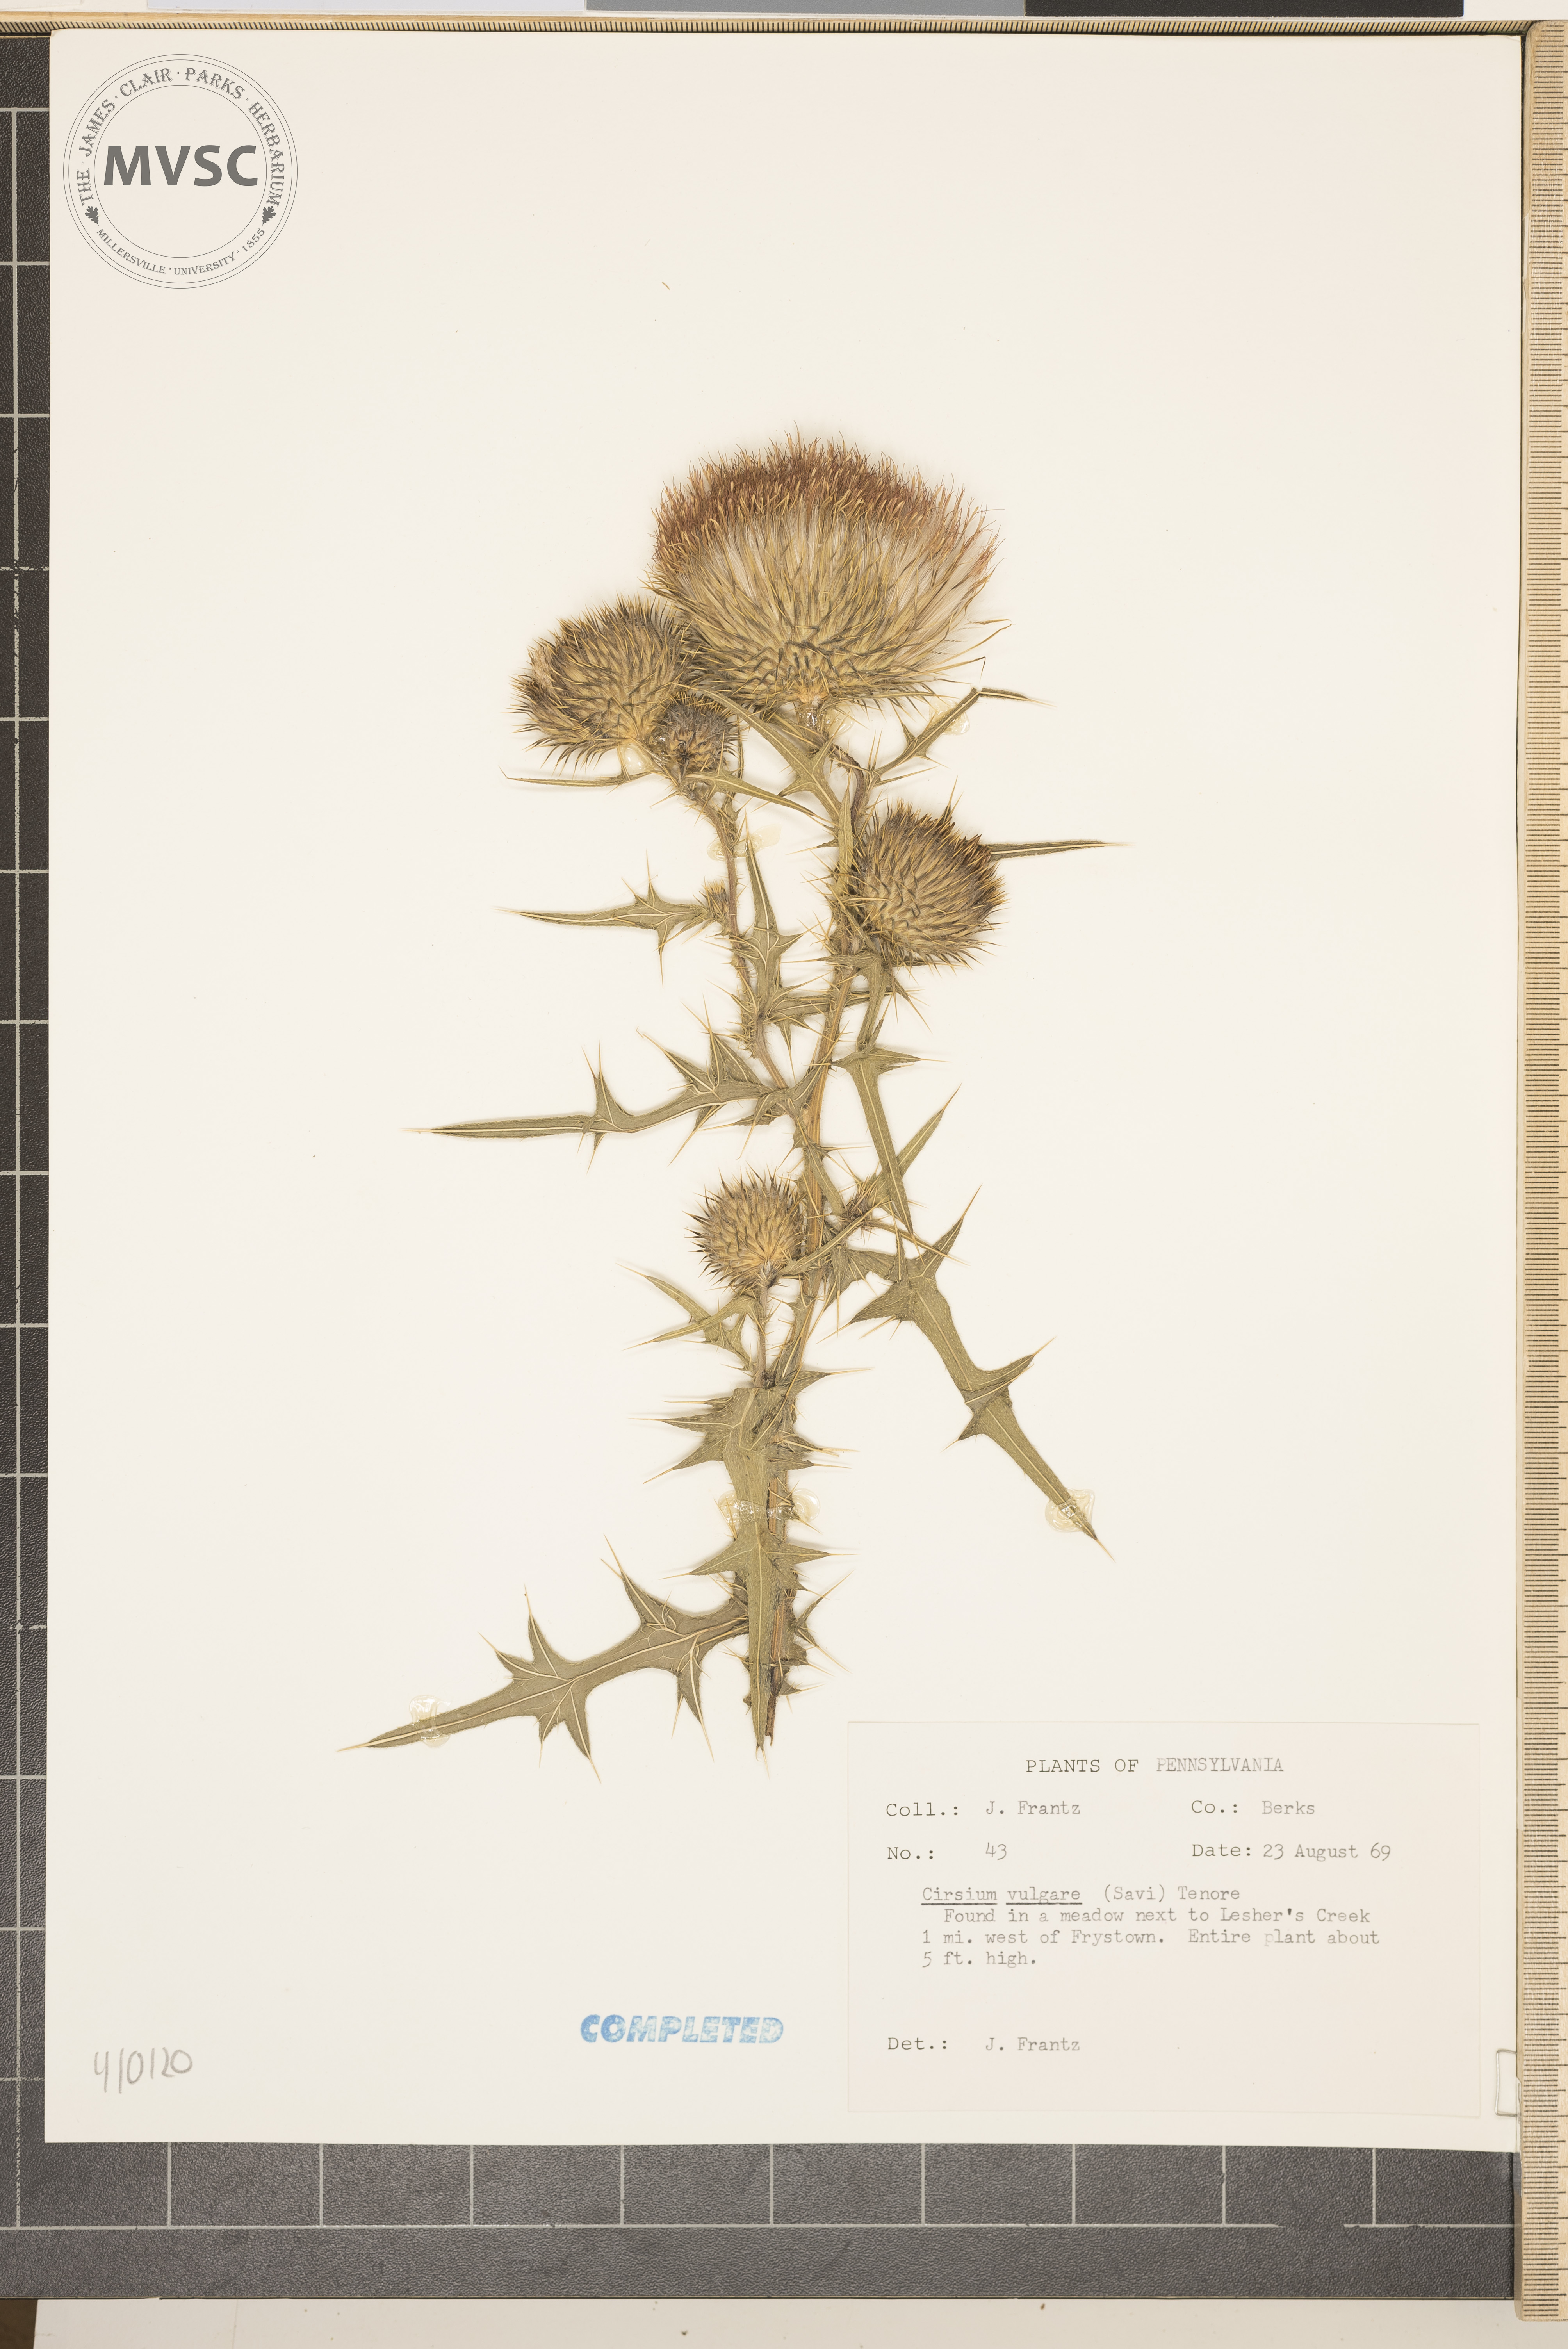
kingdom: Plantae
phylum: Tracheophyta
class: Magnoliopsida
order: Asterales
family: Asteraceae
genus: Cirsium
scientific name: Cirsium vulgare
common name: bull thistle
